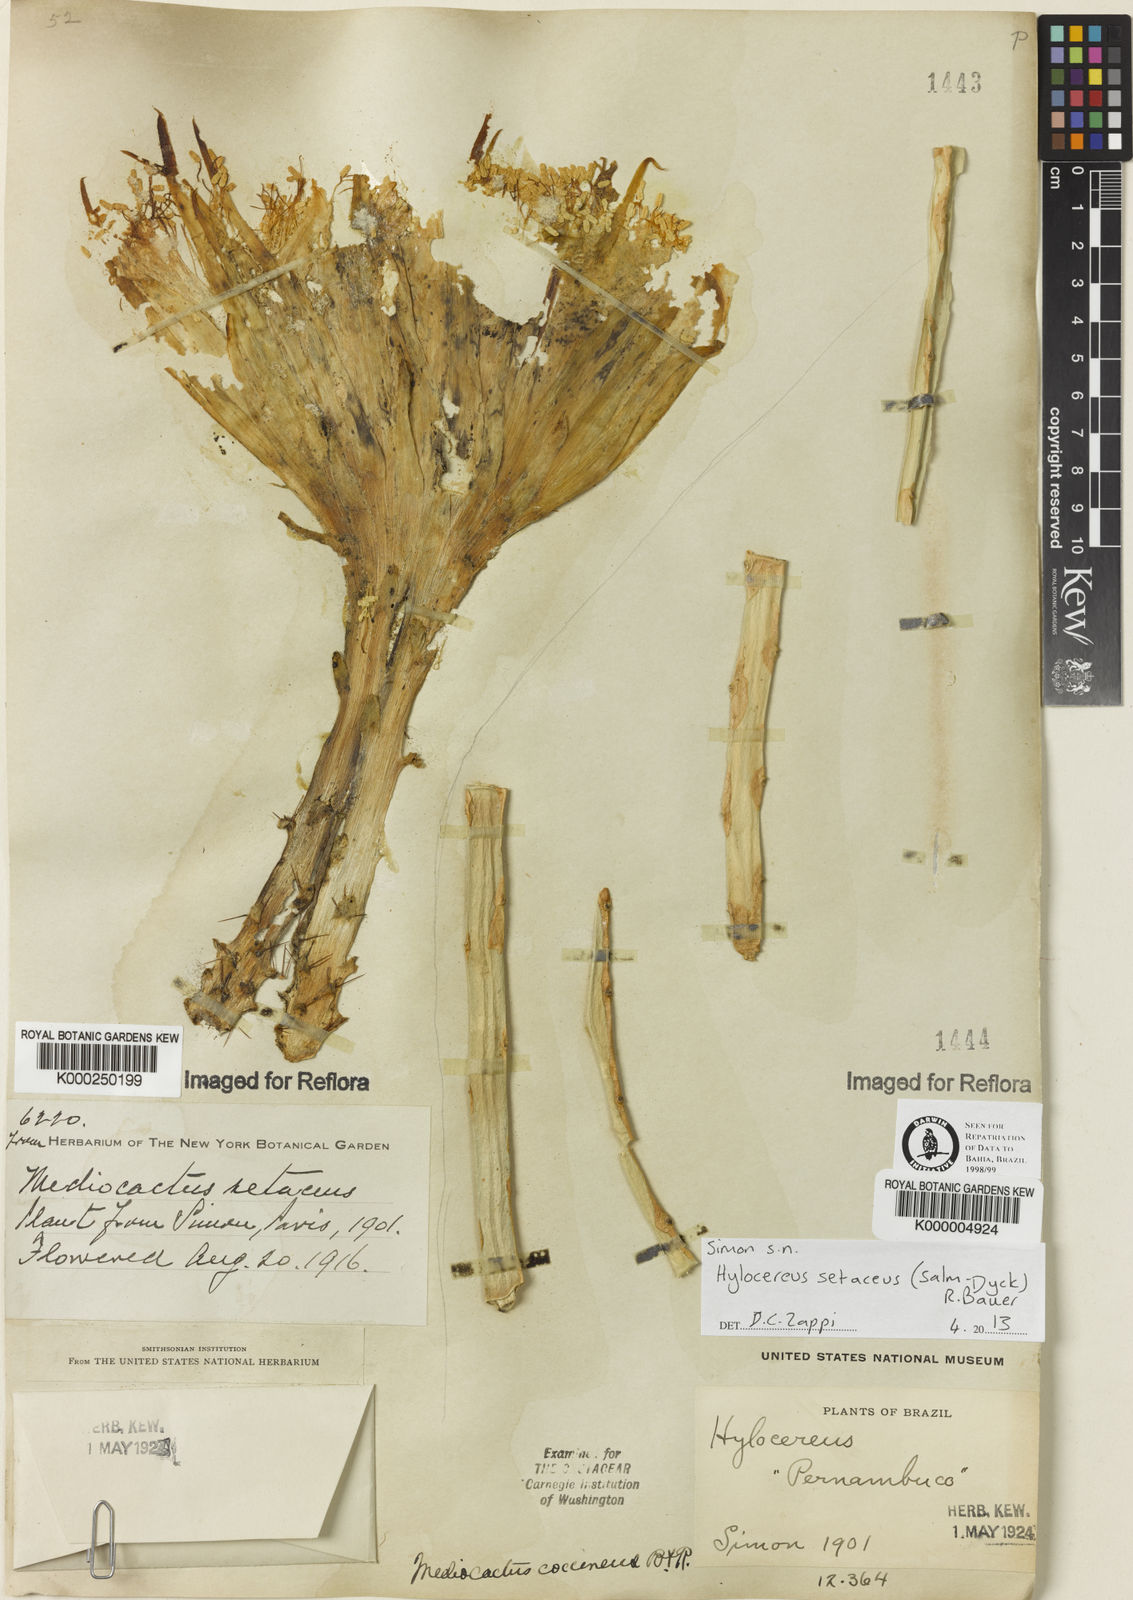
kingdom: Plantae
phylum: Tracheophyta
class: Magnoliopsida
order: Caryophyllales
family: Cactaceae
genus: Selenicereus
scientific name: Selenicereus setaceus
